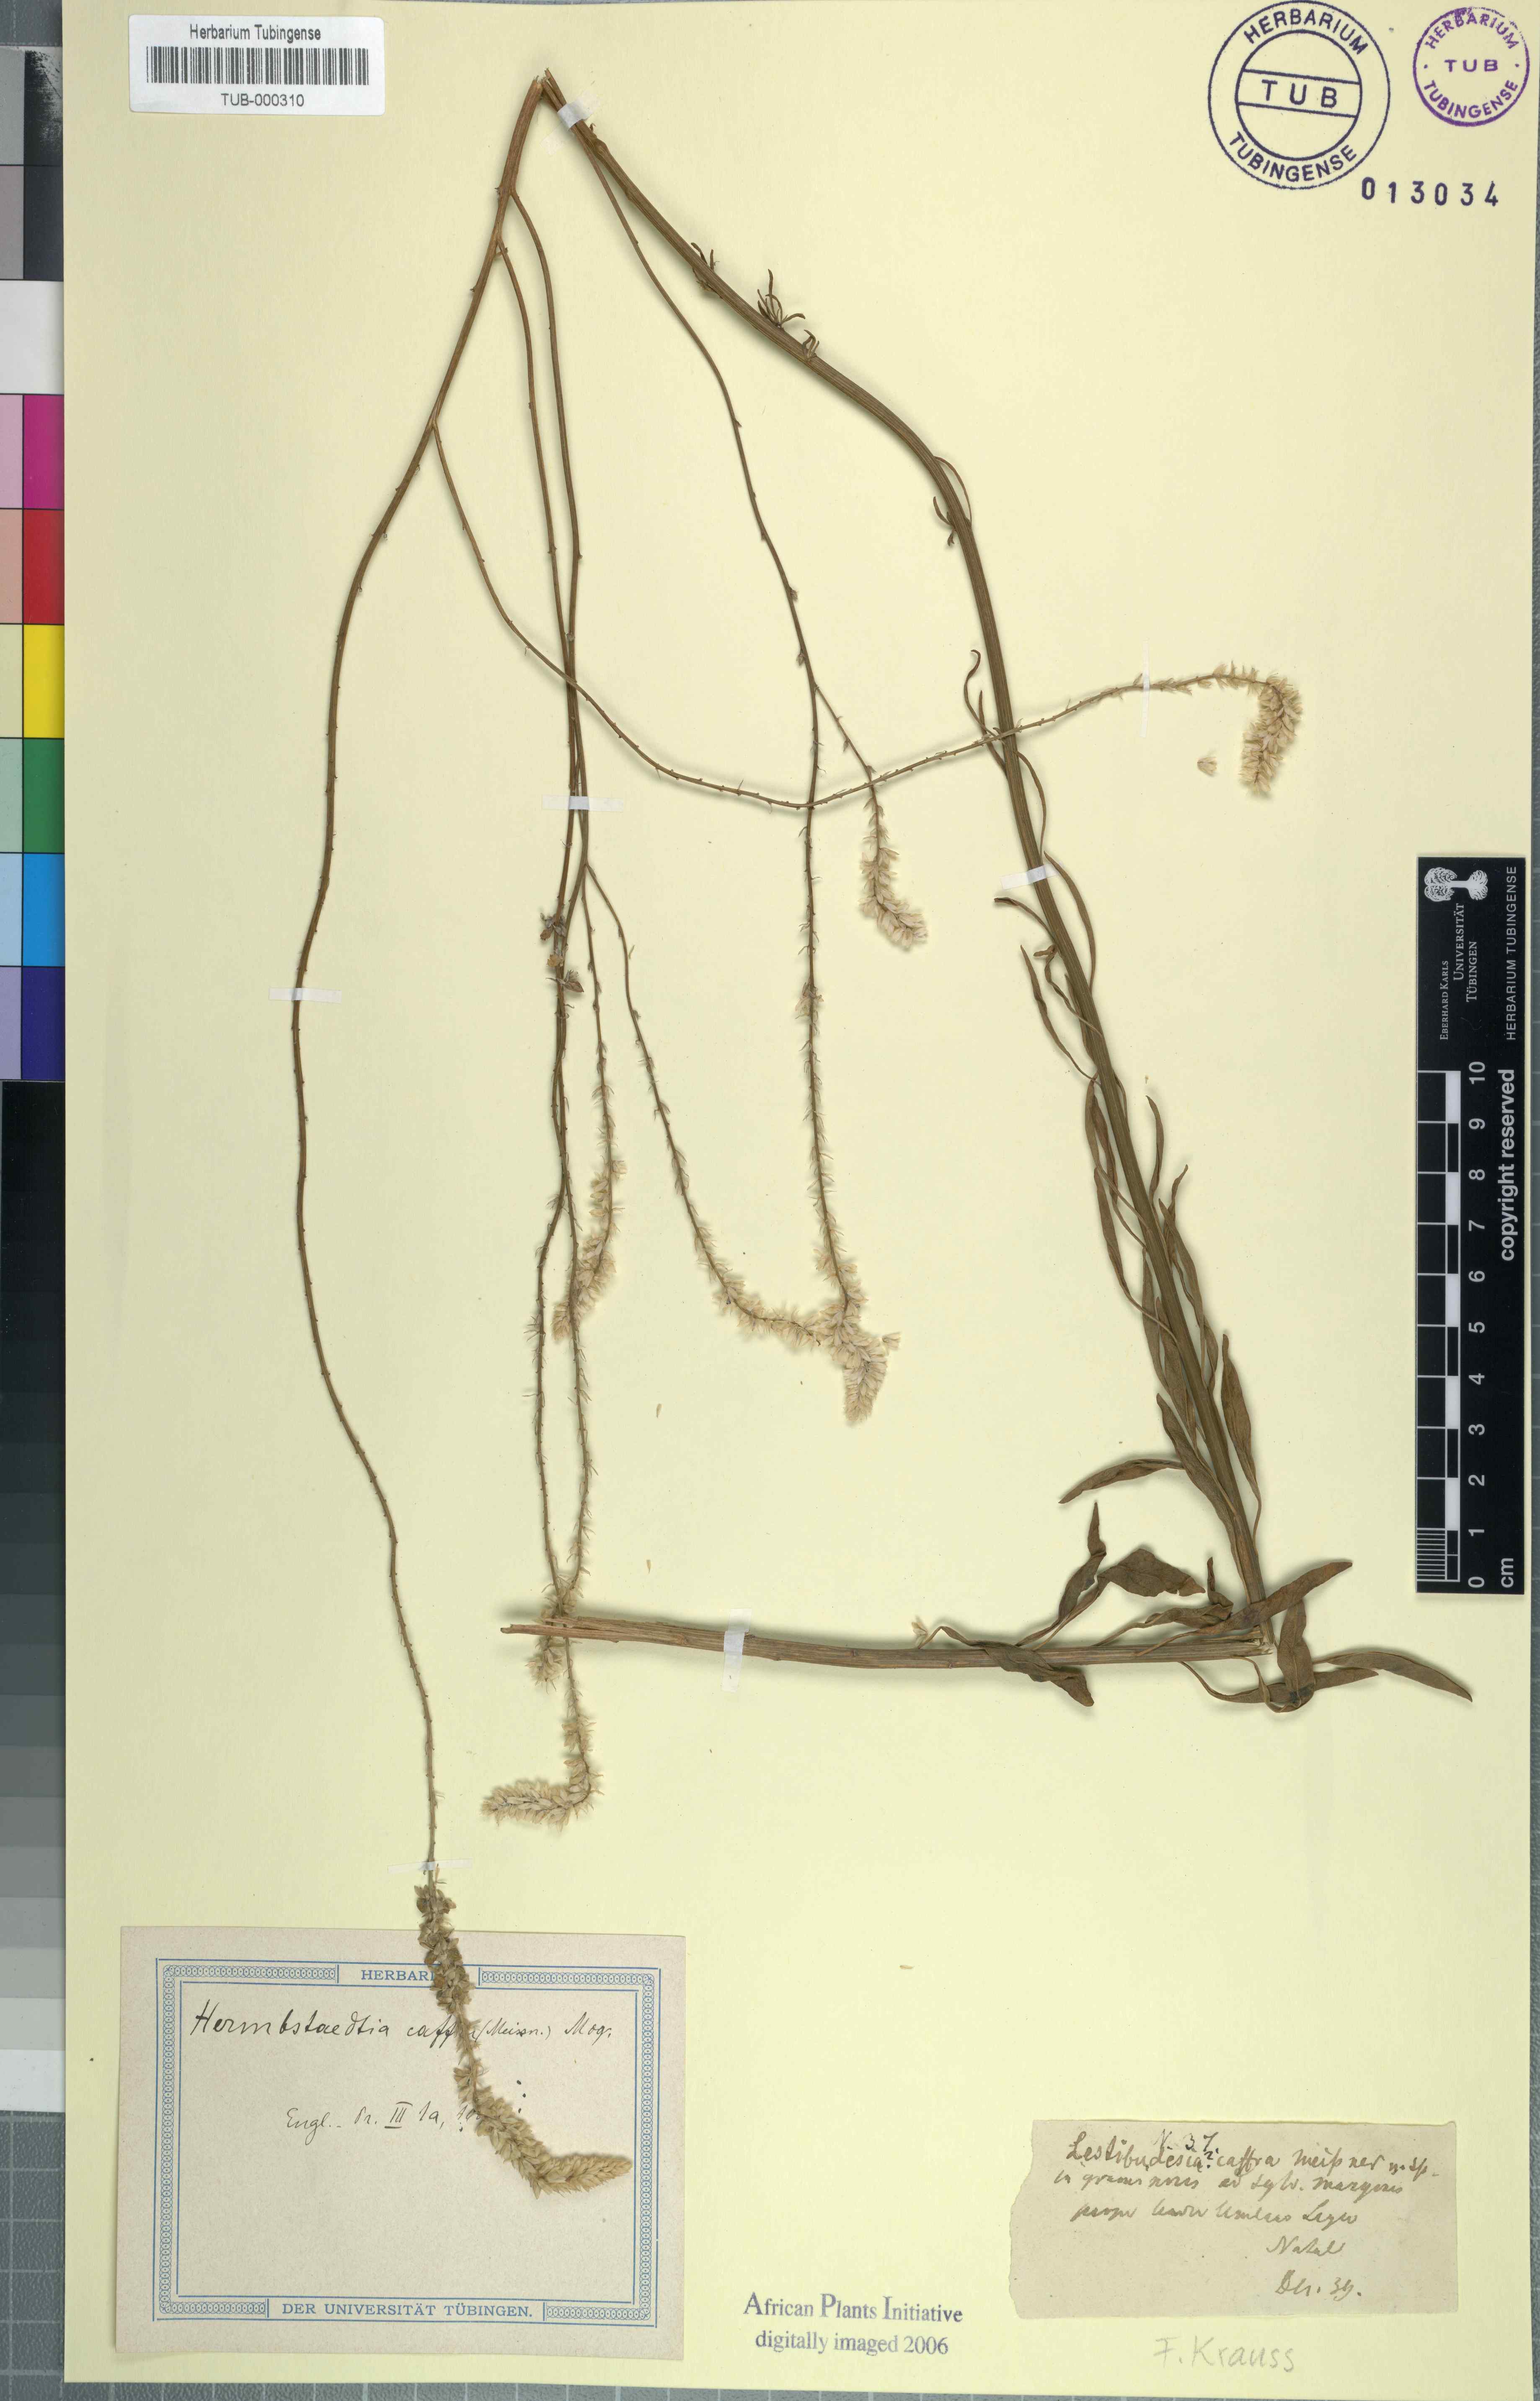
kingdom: Plantae
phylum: Tracheophyta
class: Magnoliopsida
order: Caryophyllales
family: Amaranthaceae
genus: Hermbstaedtia
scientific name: Hermbstaedtia caffra
